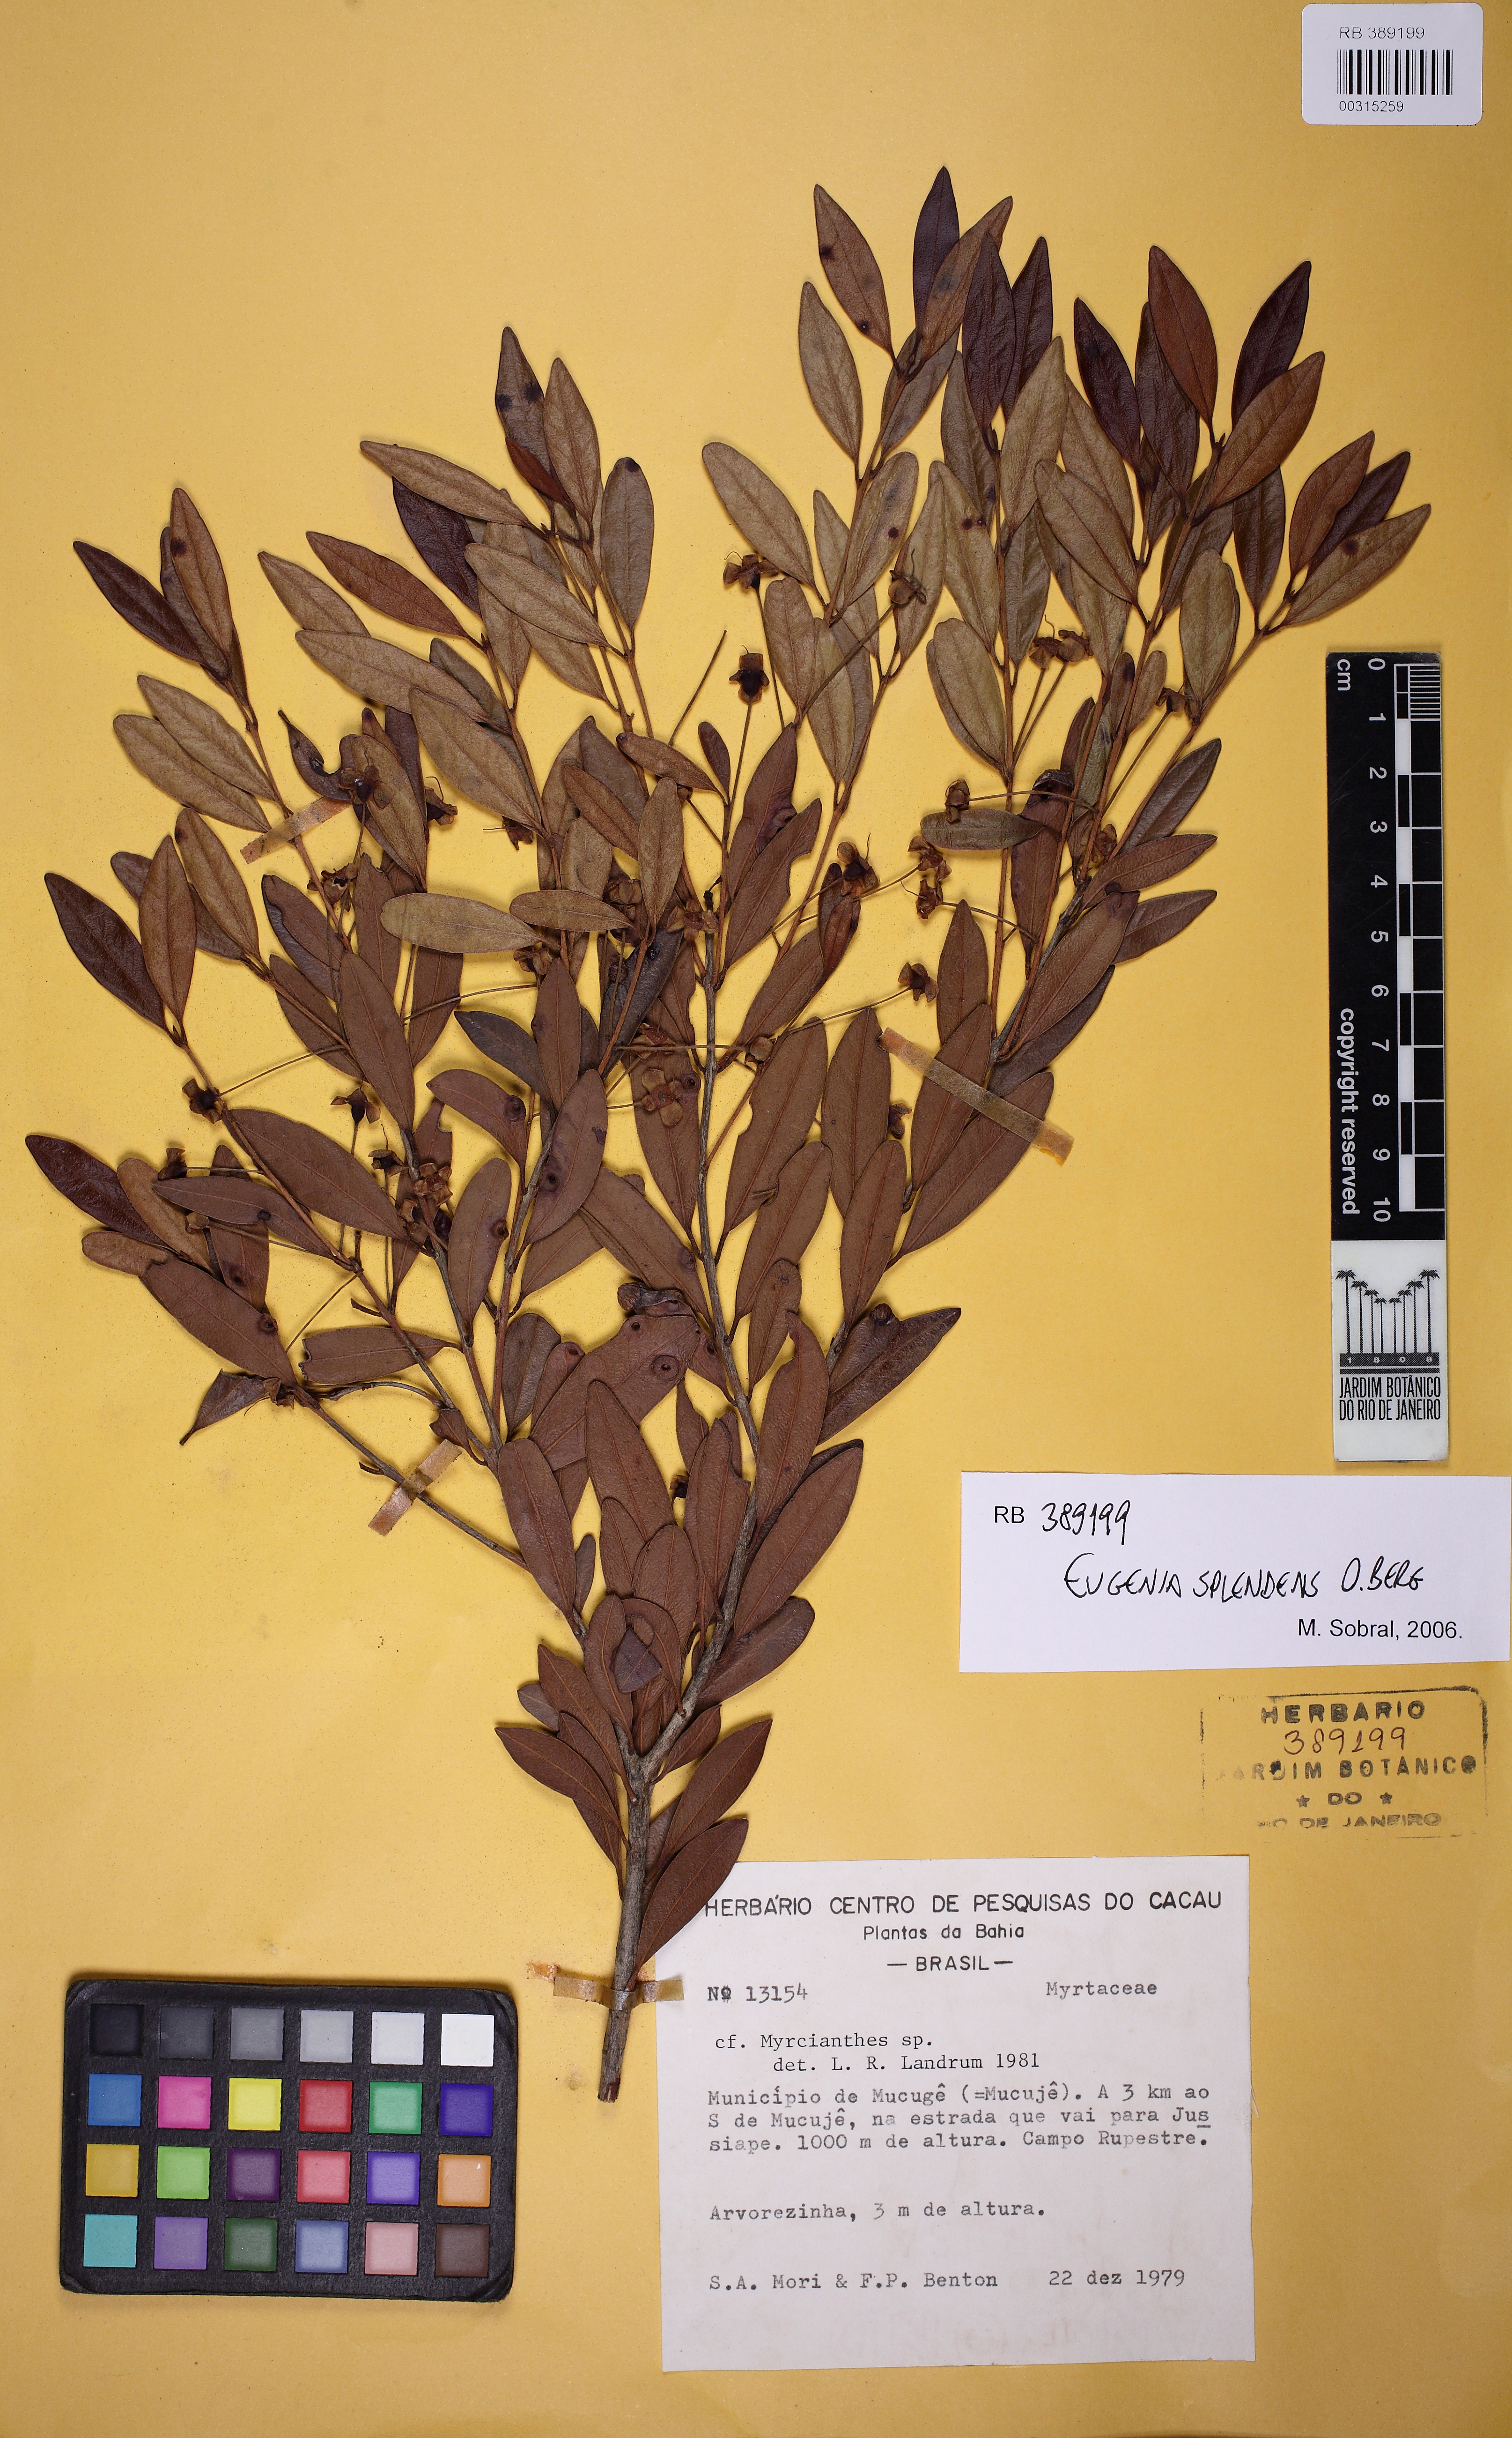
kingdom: Plantae
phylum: Tracheophyta
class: Magnoliopsida
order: Myrtales
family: Myrtaceae
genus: Eugenia
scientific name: Eugenia splendens
